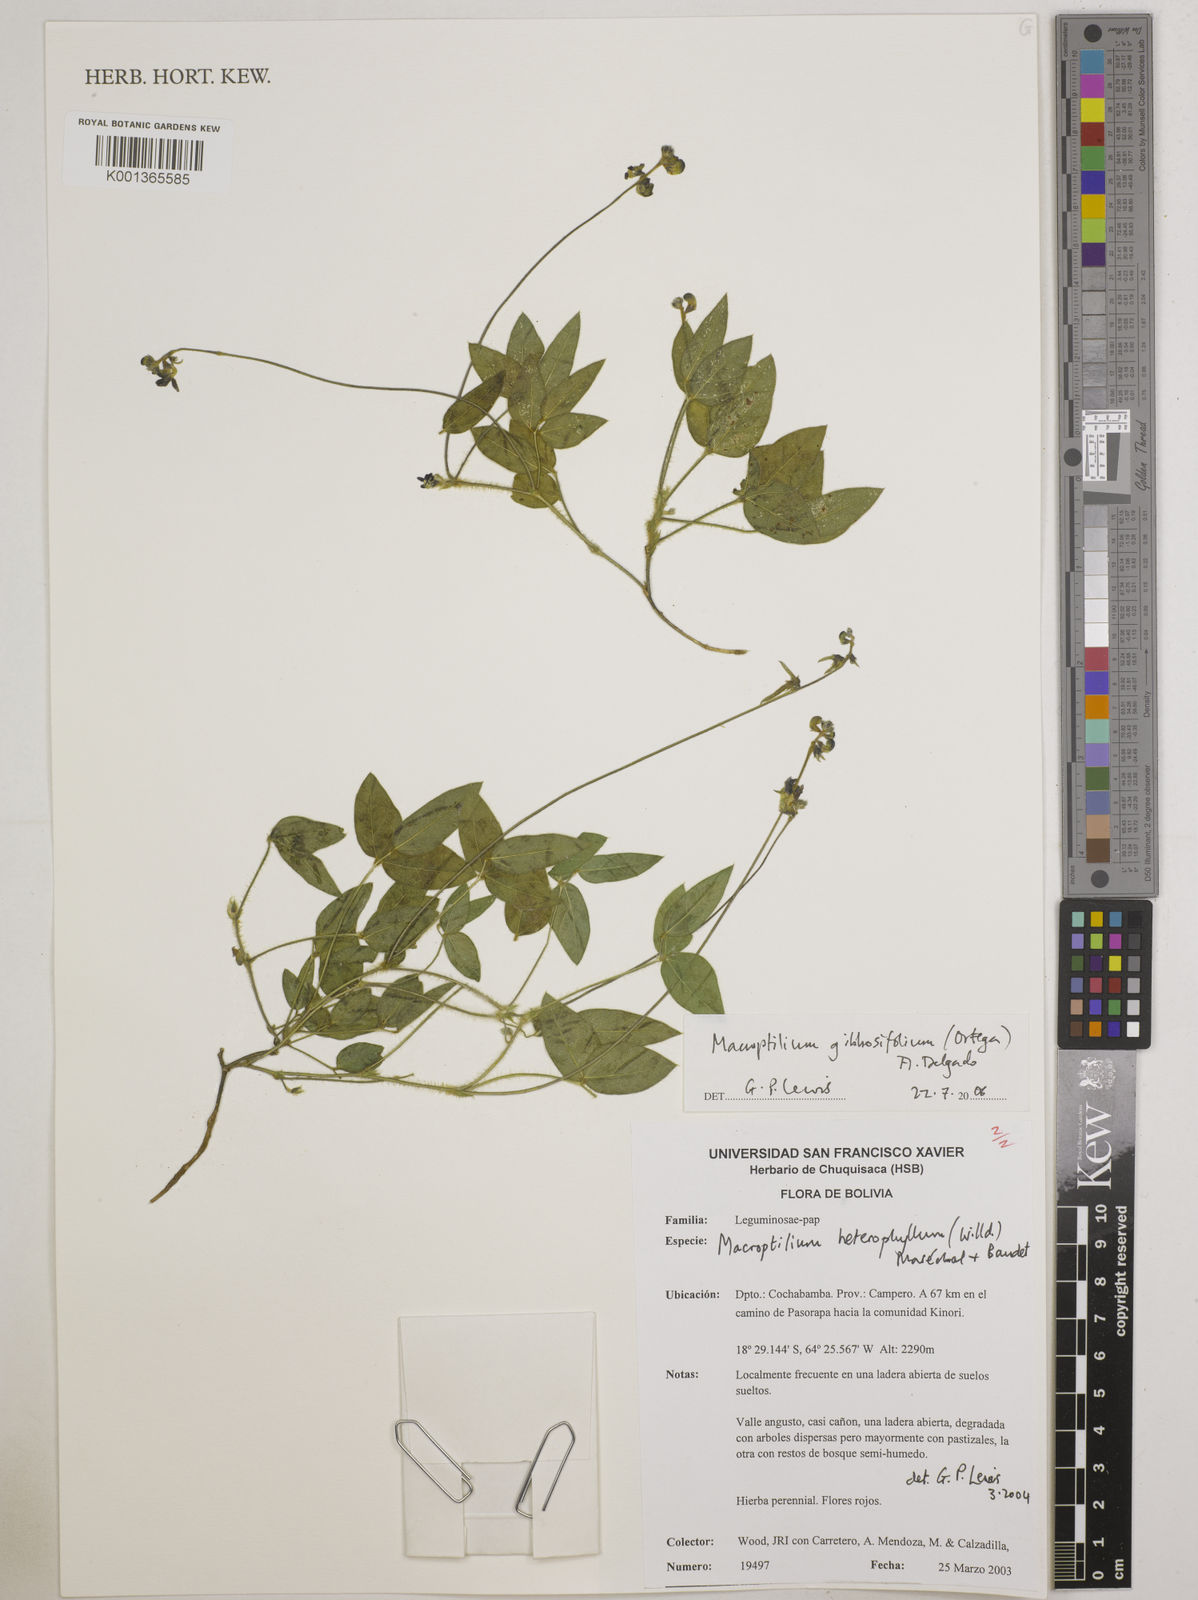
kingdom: Plantae
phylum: Tracheophyta
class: Magnoliopsida
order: Fabales
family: Fabaceae
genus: Macroptilium
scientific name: Macroptilium gibbosifolium
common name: Variableleaf bushbean
